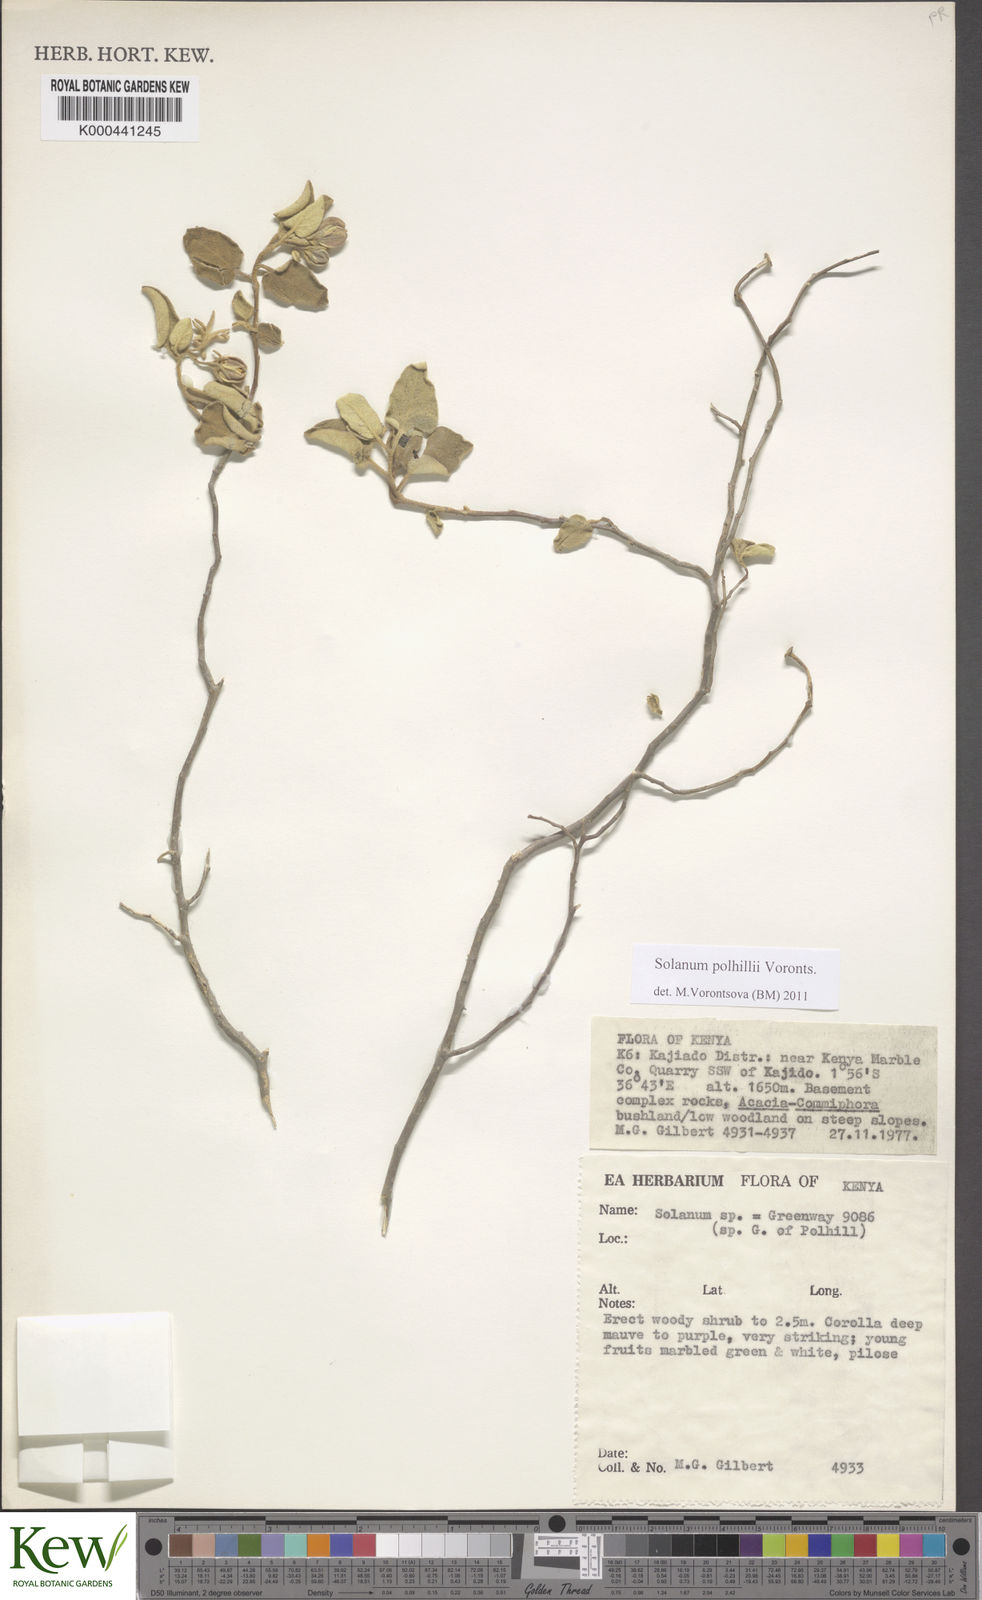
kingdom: Plantae
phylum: Tracheophyta
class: Magnoliopsida
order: Solanales
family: Solanaceae
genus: Solanum
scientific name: Solanum polhillii
